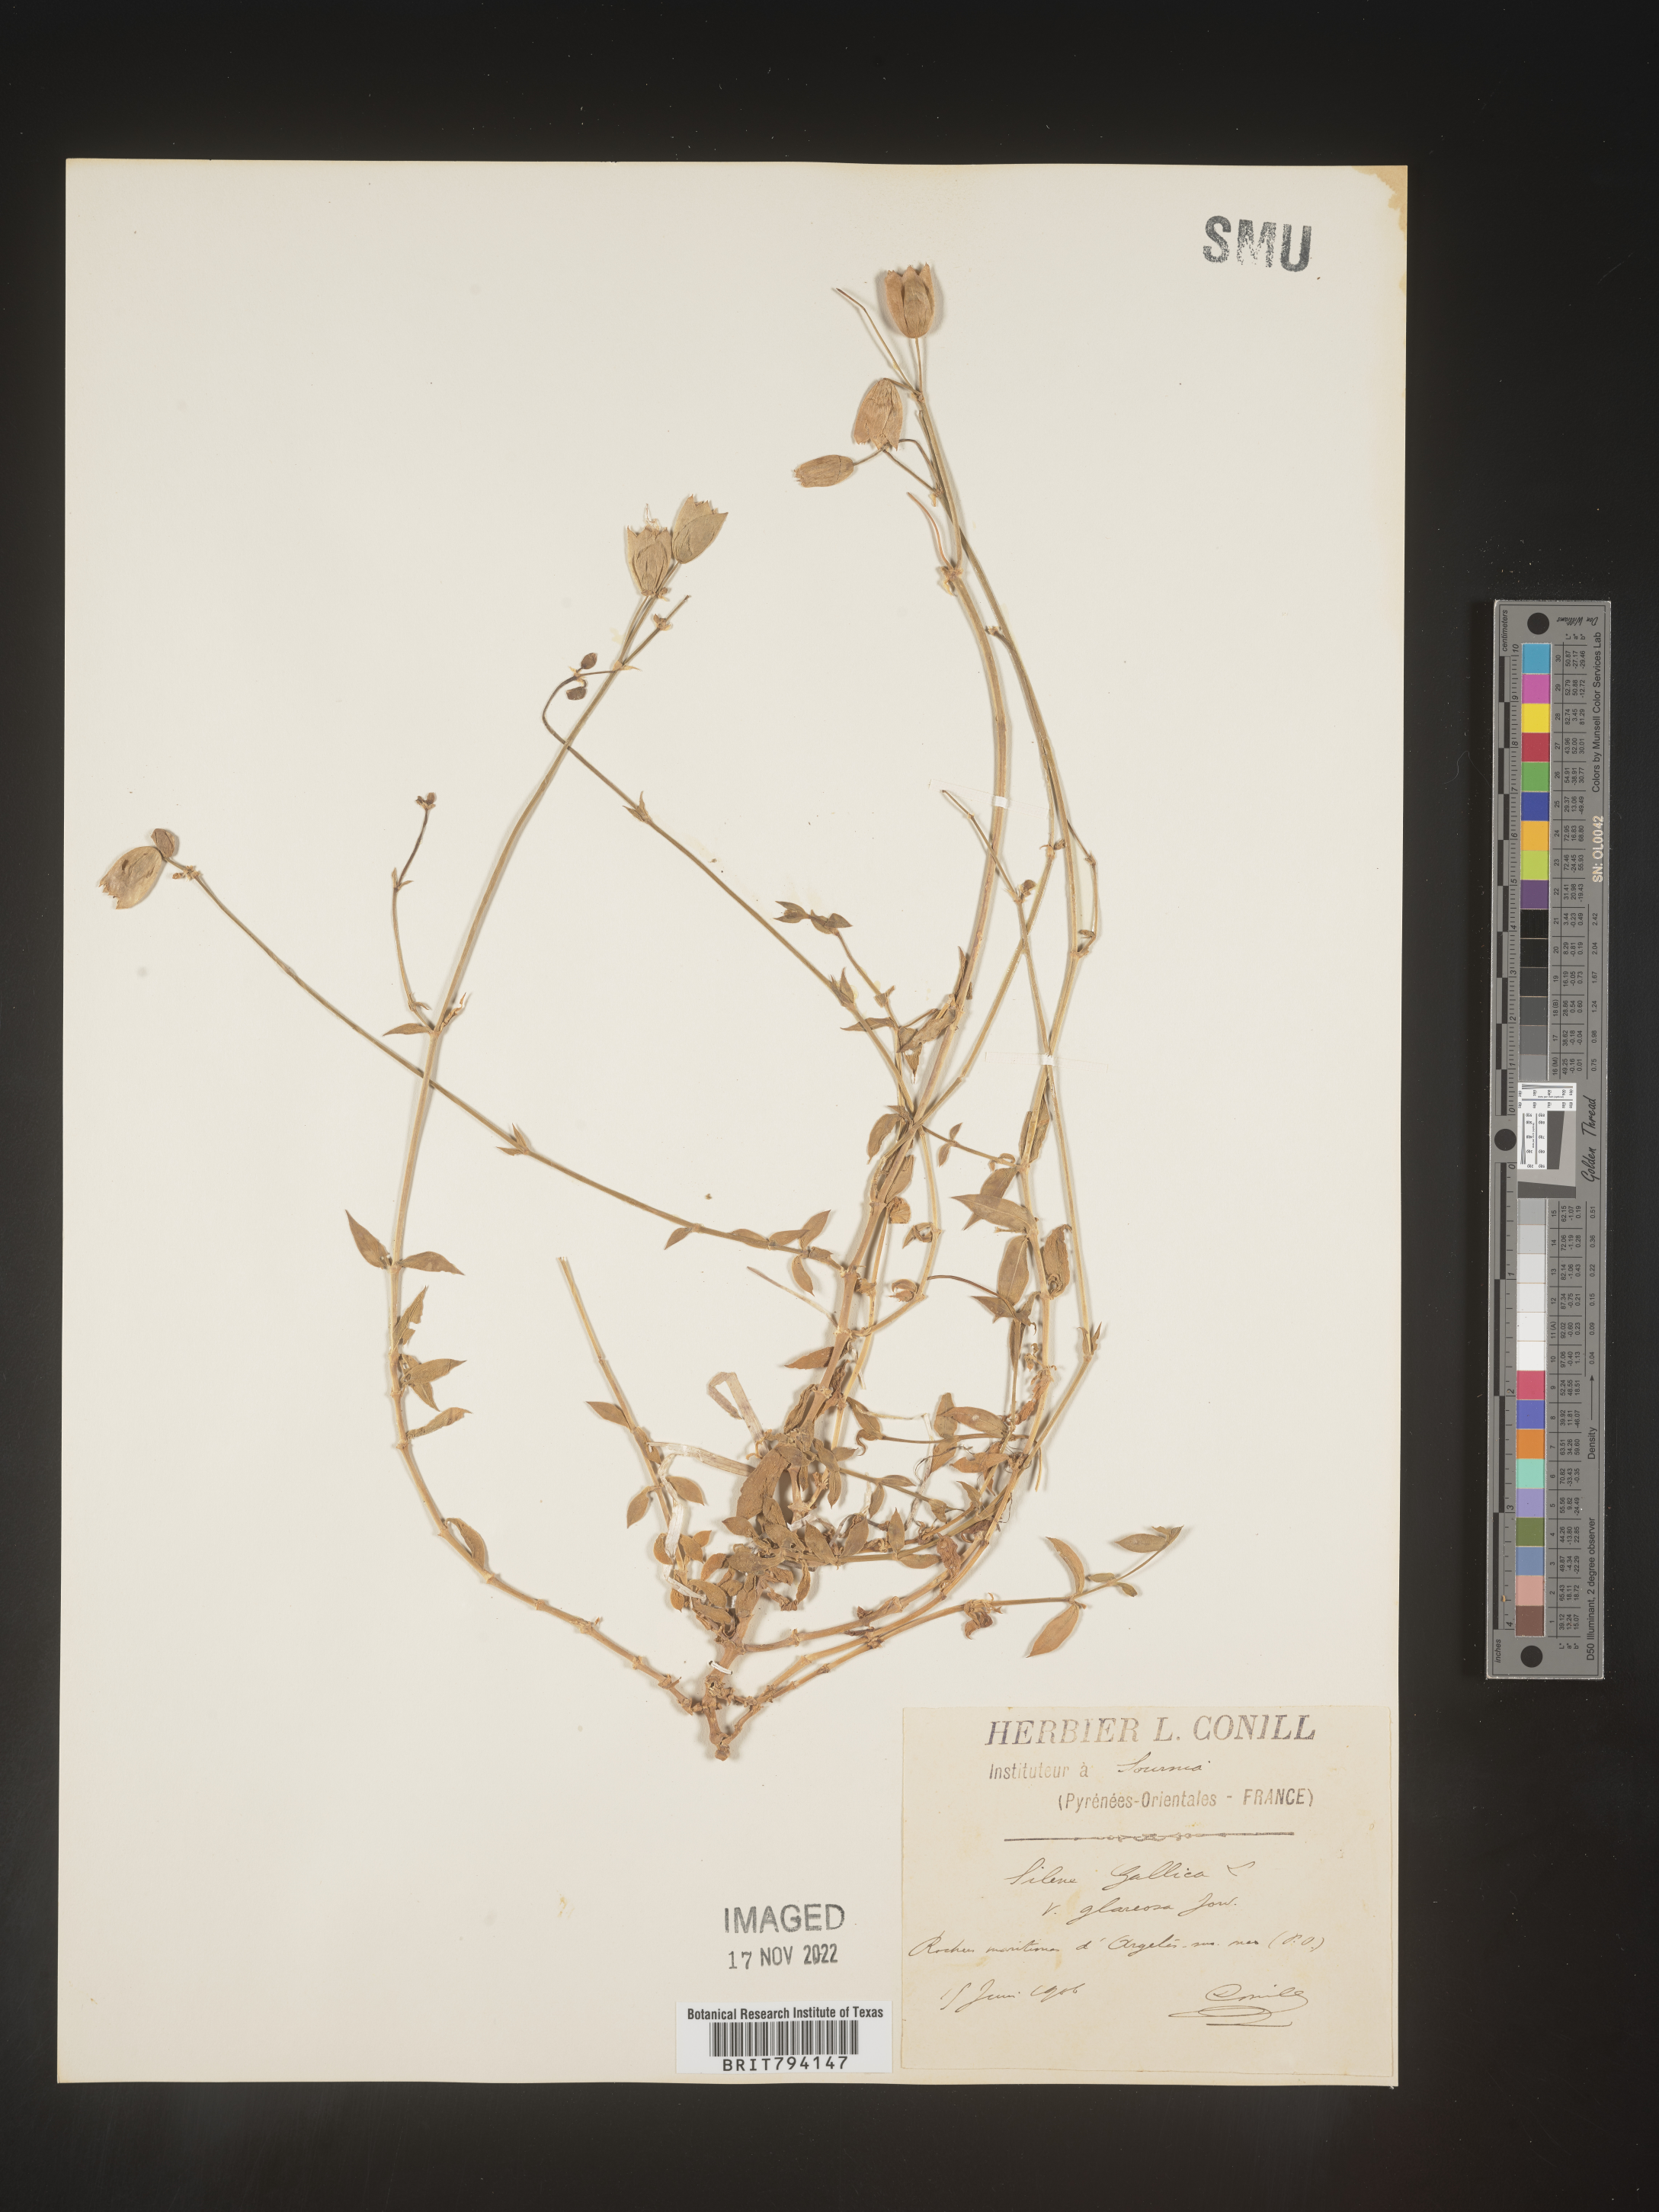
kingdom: Plantae
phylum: Tracheophyta
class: Magnoliopsida
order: Caryophyllales
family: Caryophyllaceae
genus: Silene
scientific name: Silene gallica
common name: Small-flowered catchfly
